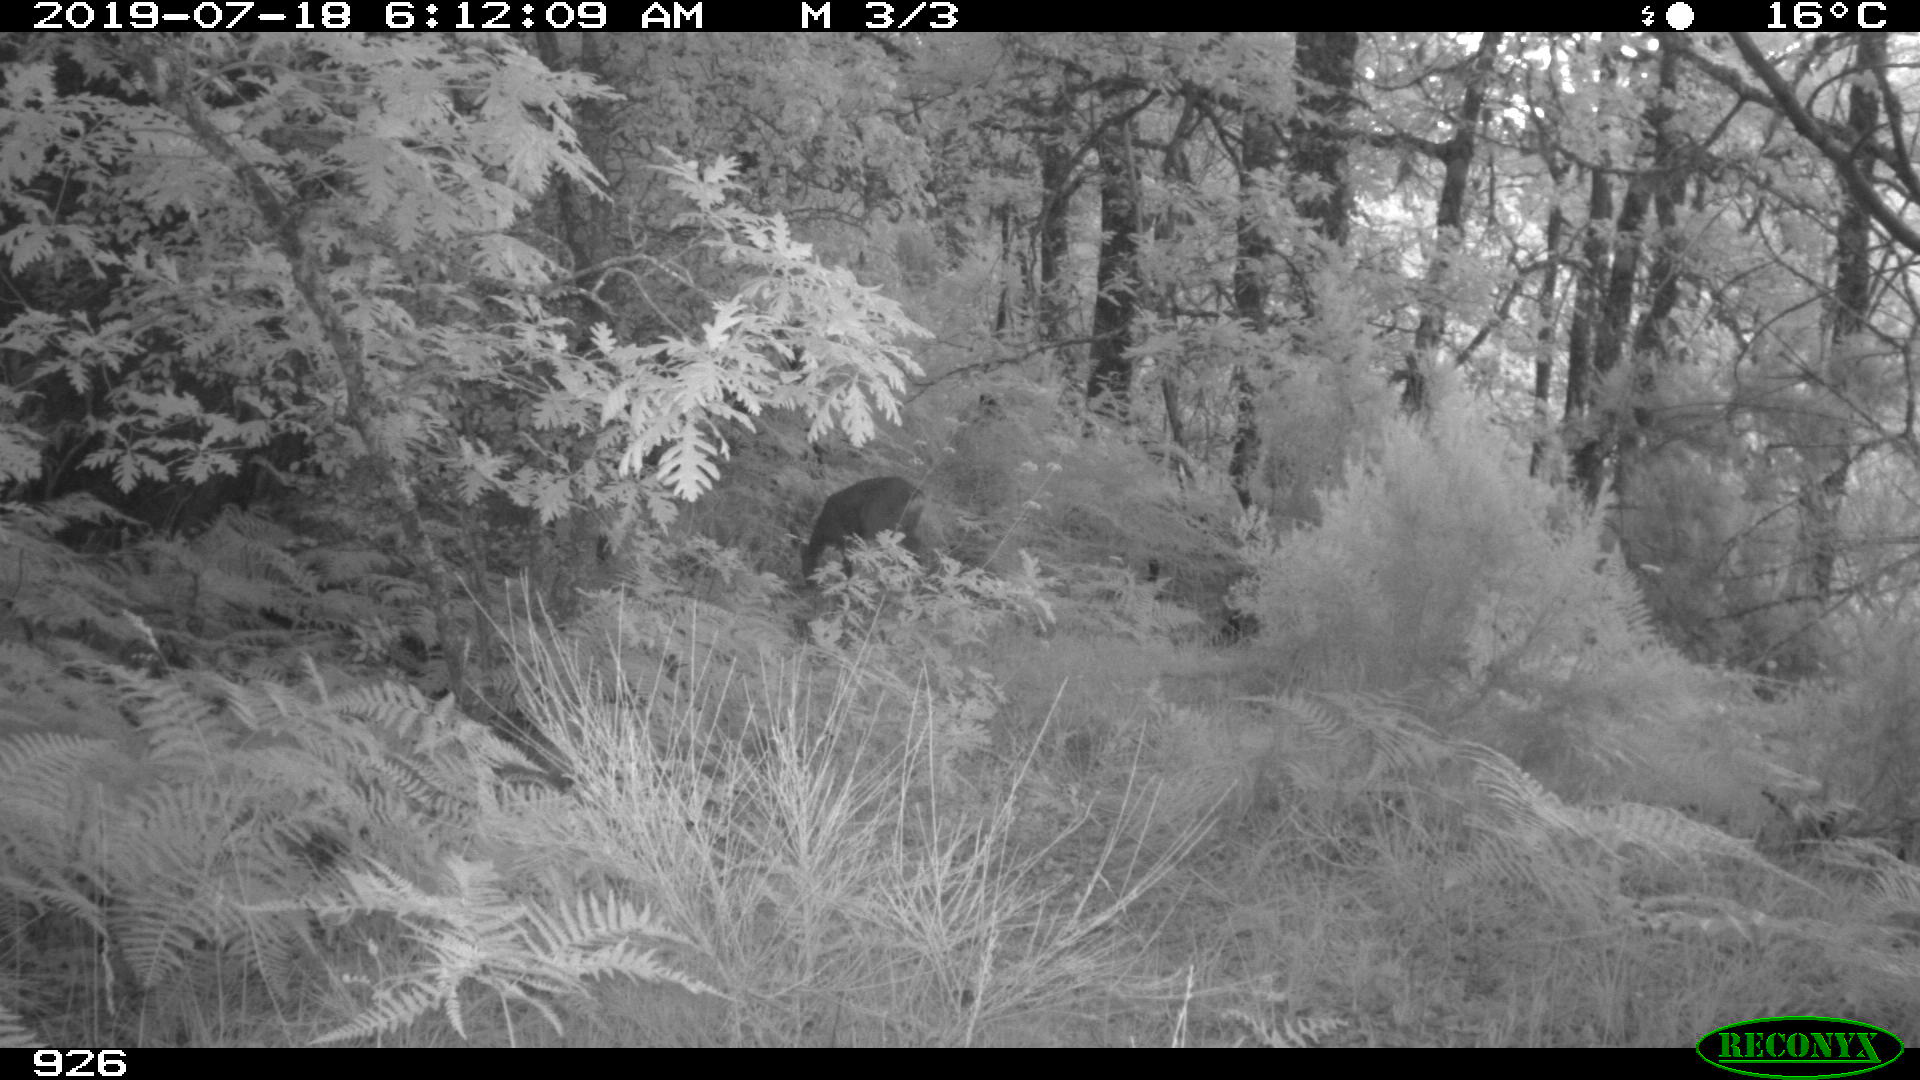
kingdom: Animalia
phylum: Chordata
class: Mammalia
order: Artiodactyla
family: Cervidae
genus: Capreolus
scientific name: Capreolus capreolus
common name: Western roe deer
